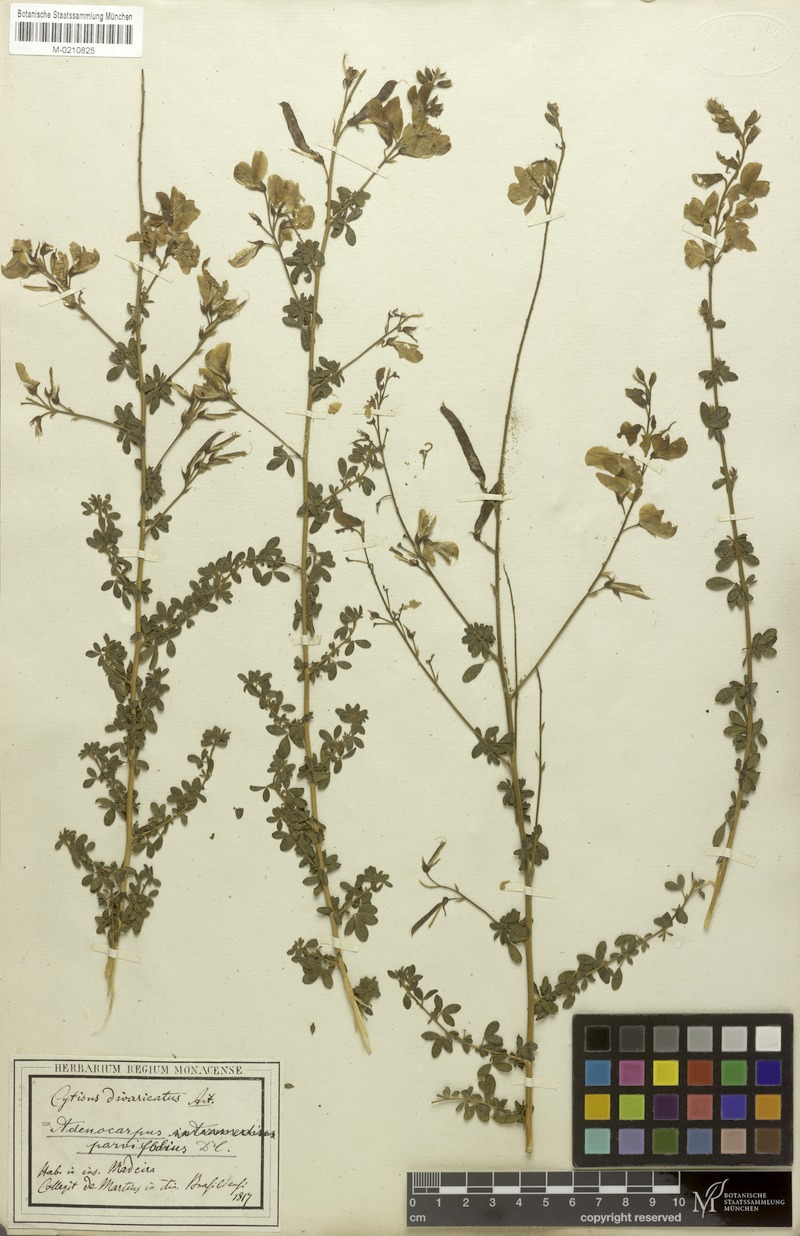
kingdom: Plantae
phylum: Tracheophyta
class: Magnoliopsida
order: Fabales
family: Fabaceae
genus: Adenocarpus
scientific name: Adenocarpus complicatus
